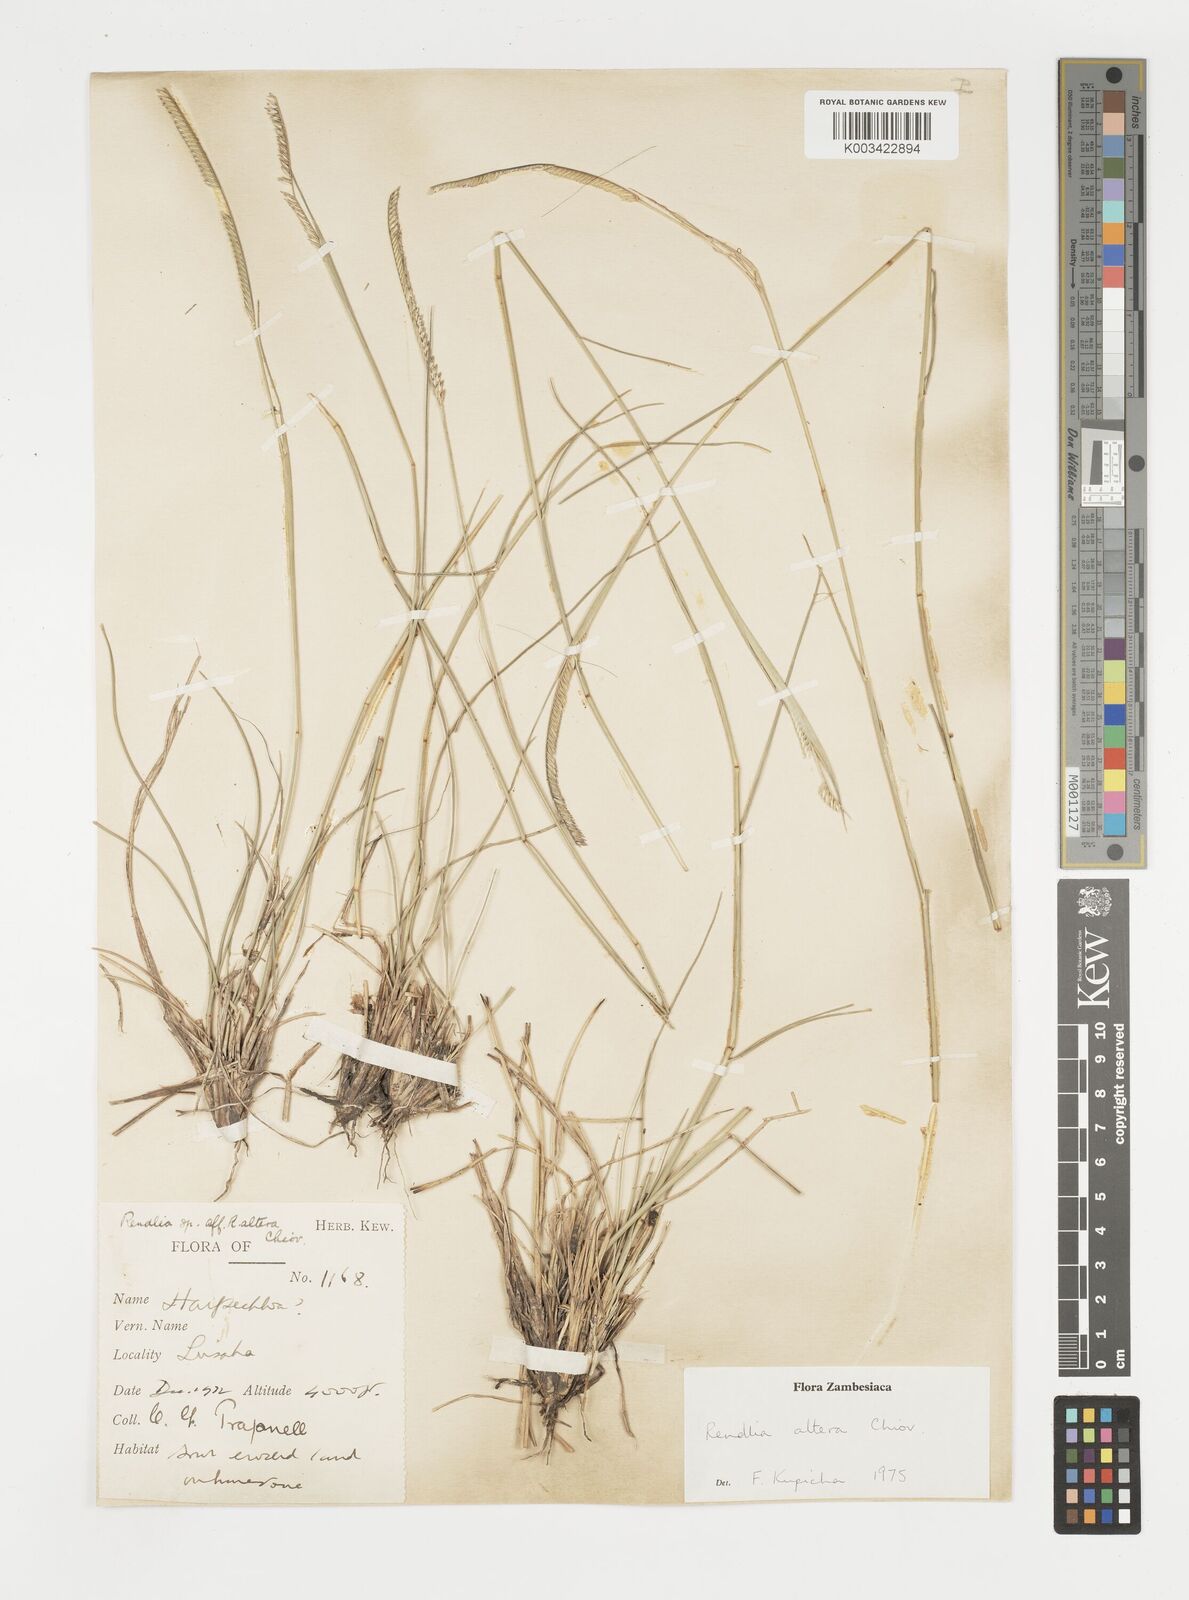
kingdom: Plantae
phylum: Tracheophyta
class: Liliopsida
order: Poales
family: Poaceae
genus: Microchloa
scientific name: Microchloa altera
